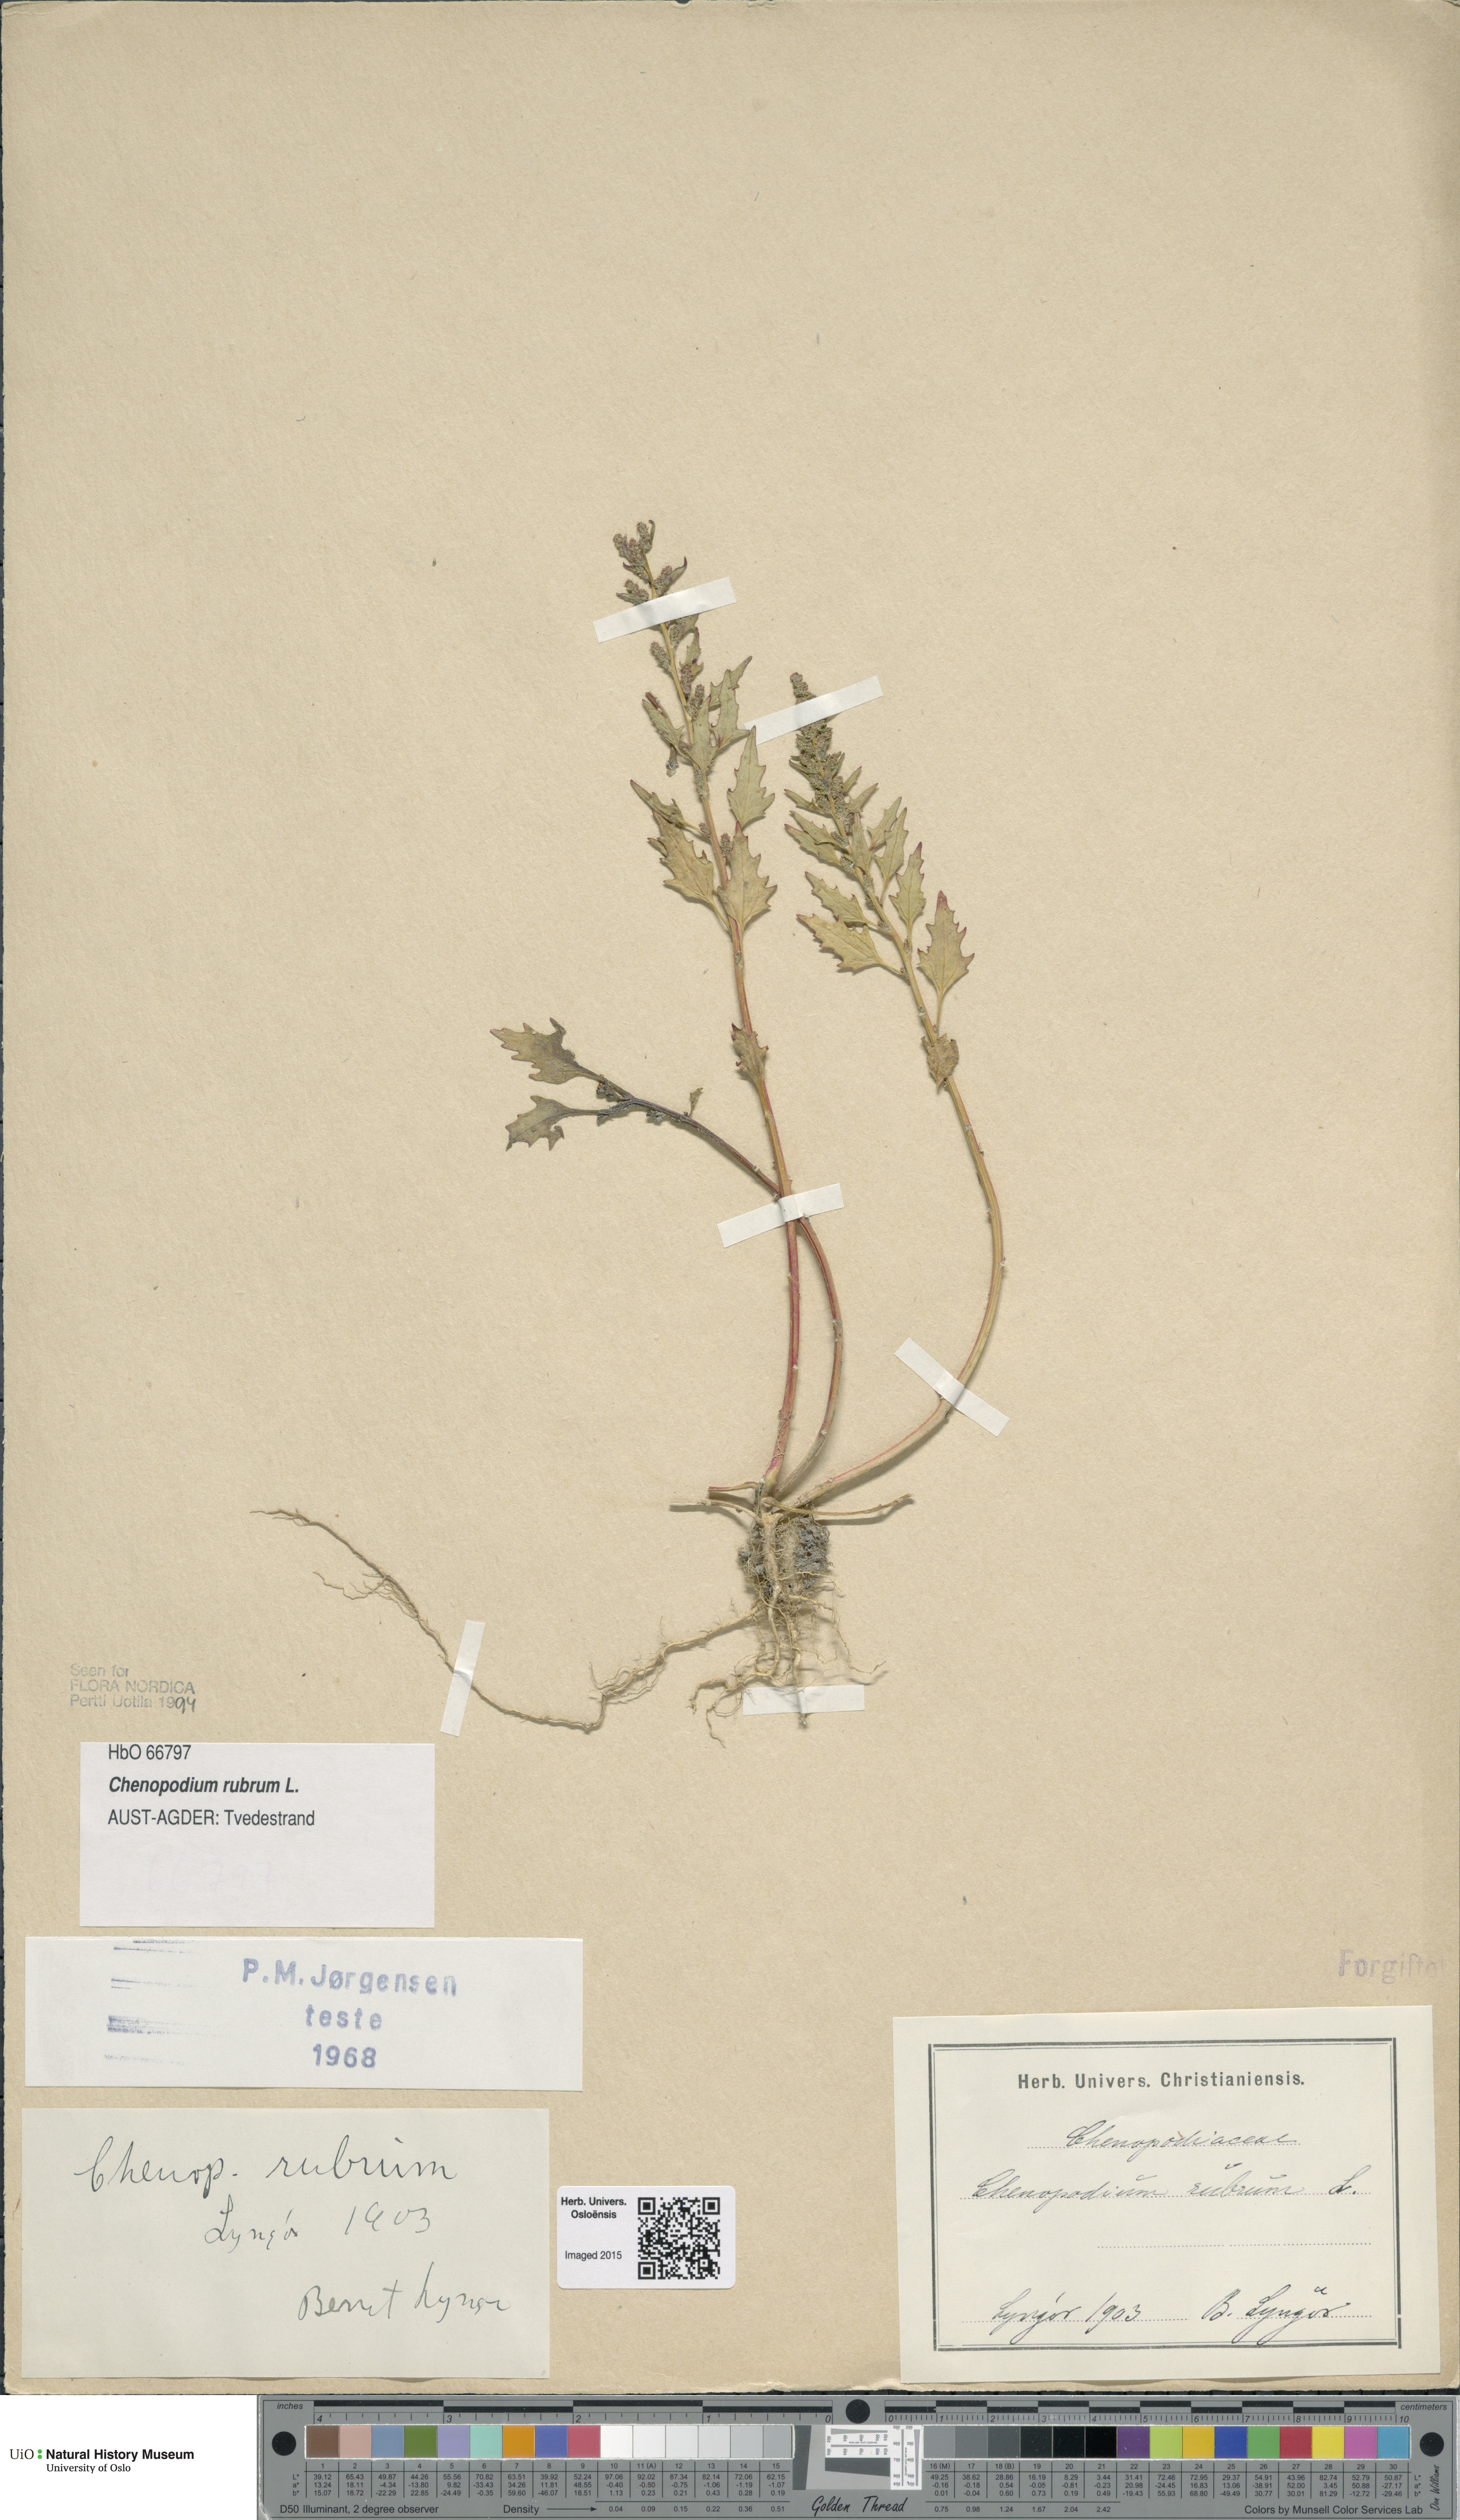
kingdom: Plantae
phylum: Tracheophyta
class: Magnoliopsida
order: Caryophyllales
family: Amaranthaceae
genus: Oxybasis
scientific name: Oxybasis rubra
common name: Red goosefoot
